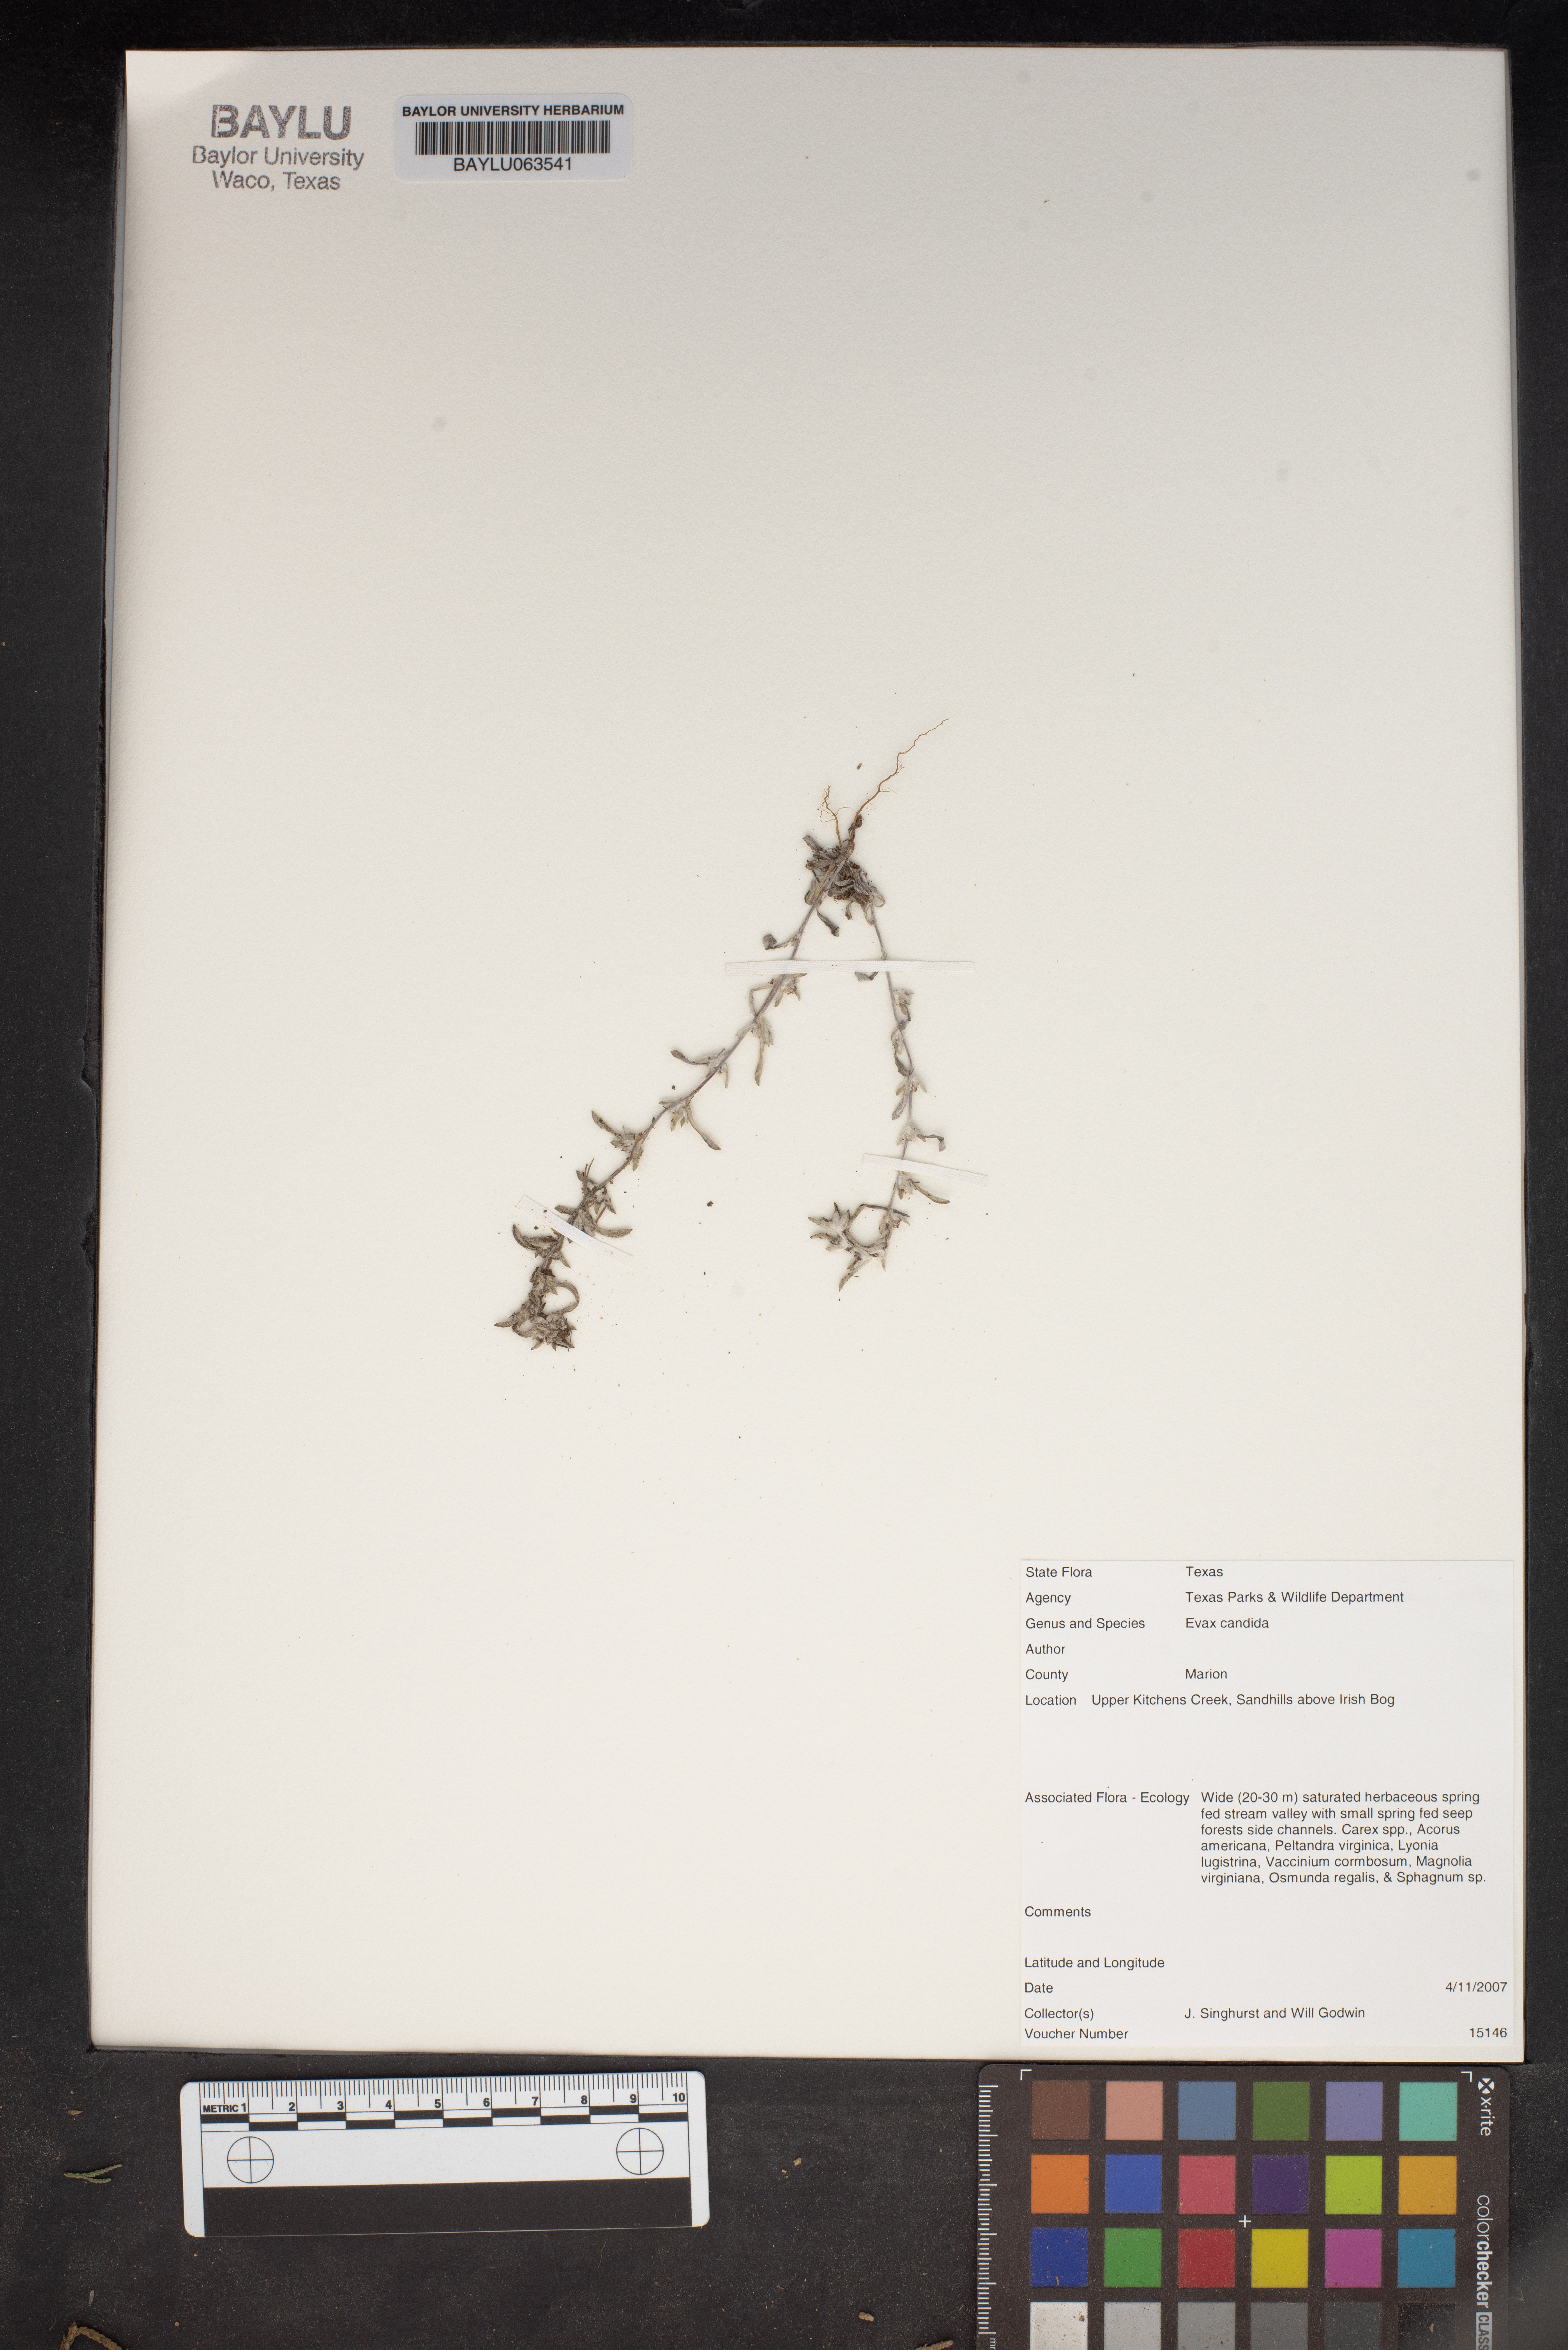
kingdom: Plantae
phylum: Tracheophyta
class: Magnoliopsida
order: Asterales
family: Asteraceae
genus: Diaperia
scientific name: Diaperia candida
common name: Silver rabbit-tobacco
